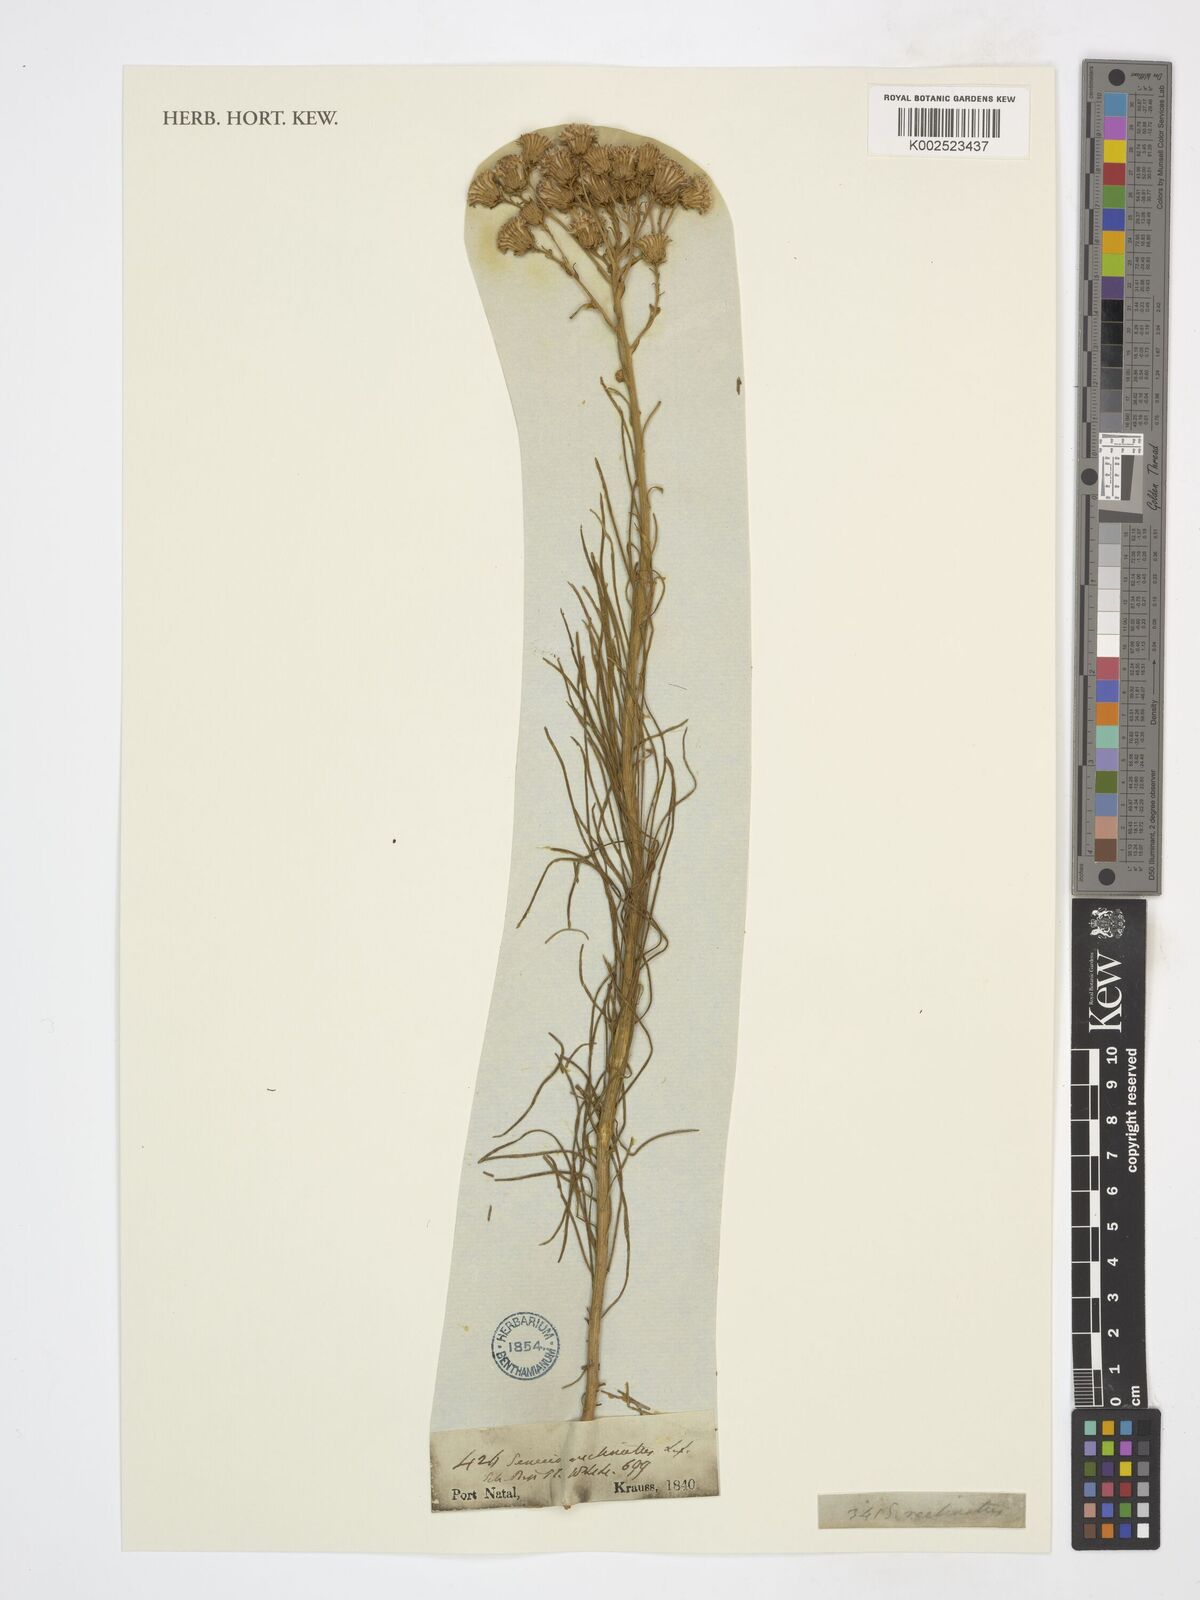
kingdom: Plantae
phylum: Tracheophyta
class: Magnoliopsida
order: Asterales
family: Asteraceae
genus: Senecio
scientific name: Senecio
